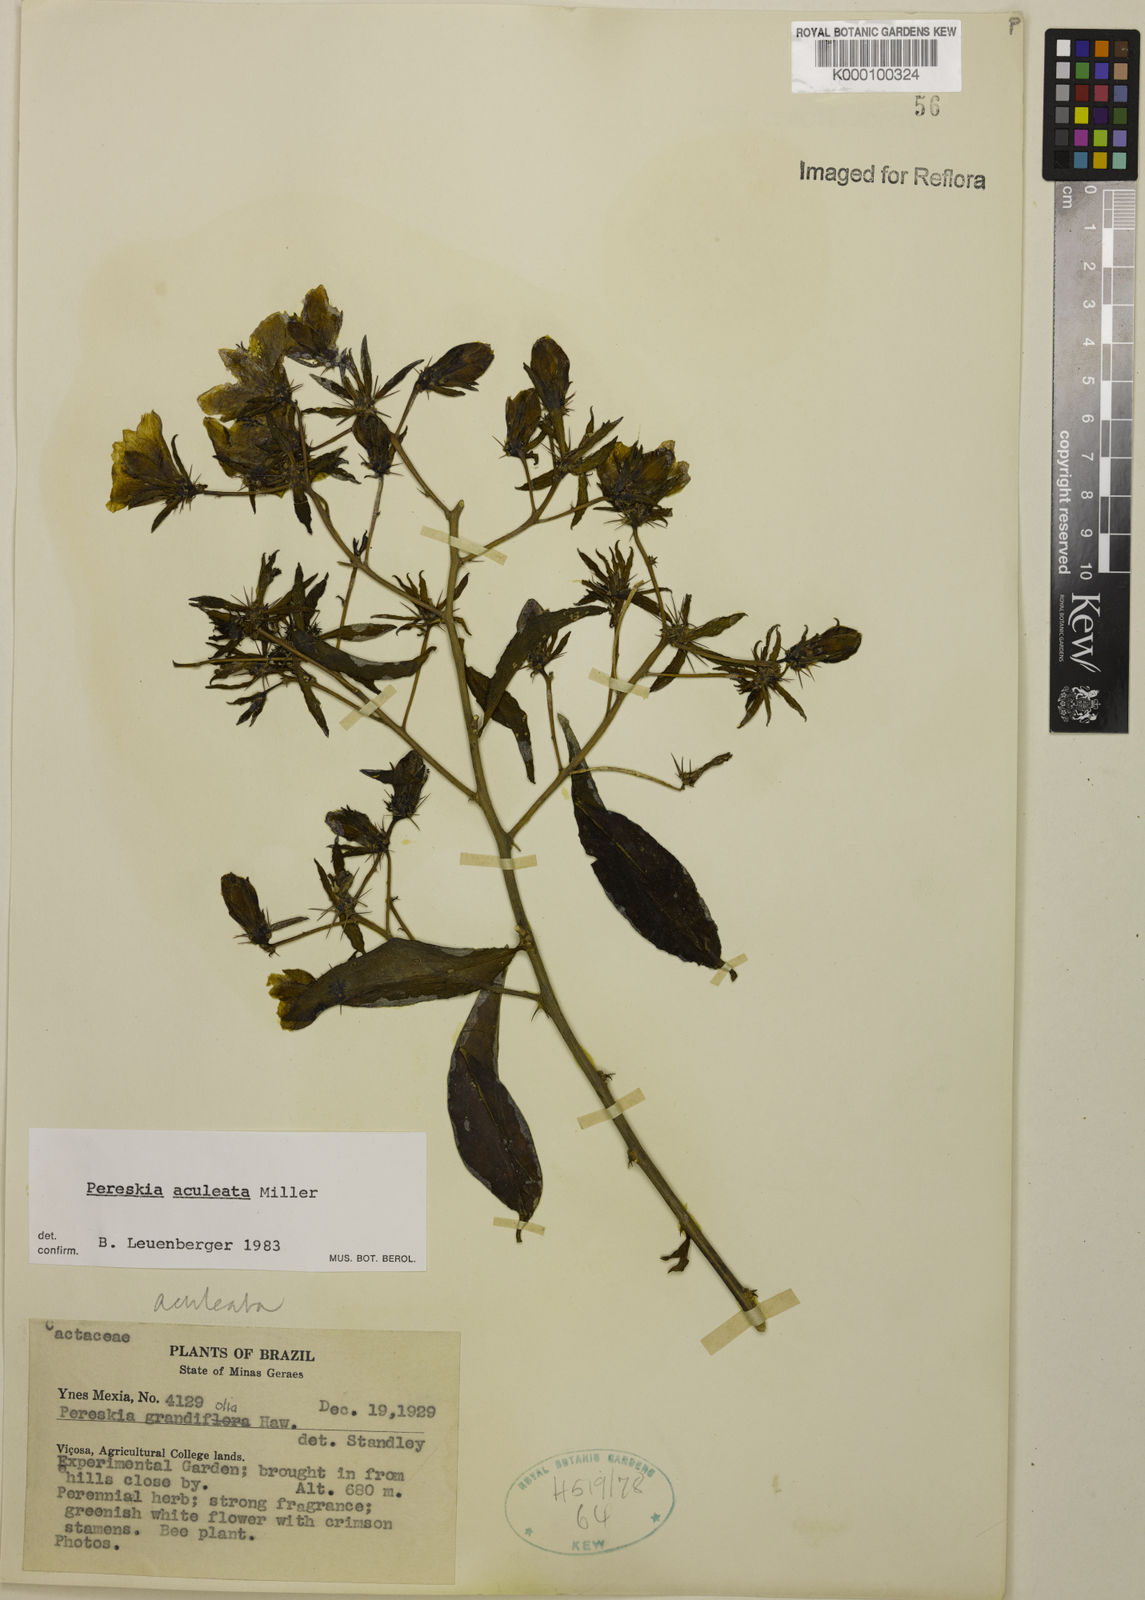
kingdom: Plantae
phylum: Tracheophyta
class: Magnoliopsida
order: Caryophyllales
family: Cactaceae
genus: Pereskia
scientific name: Pereskia aculeata
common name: Barbados gooseberry
